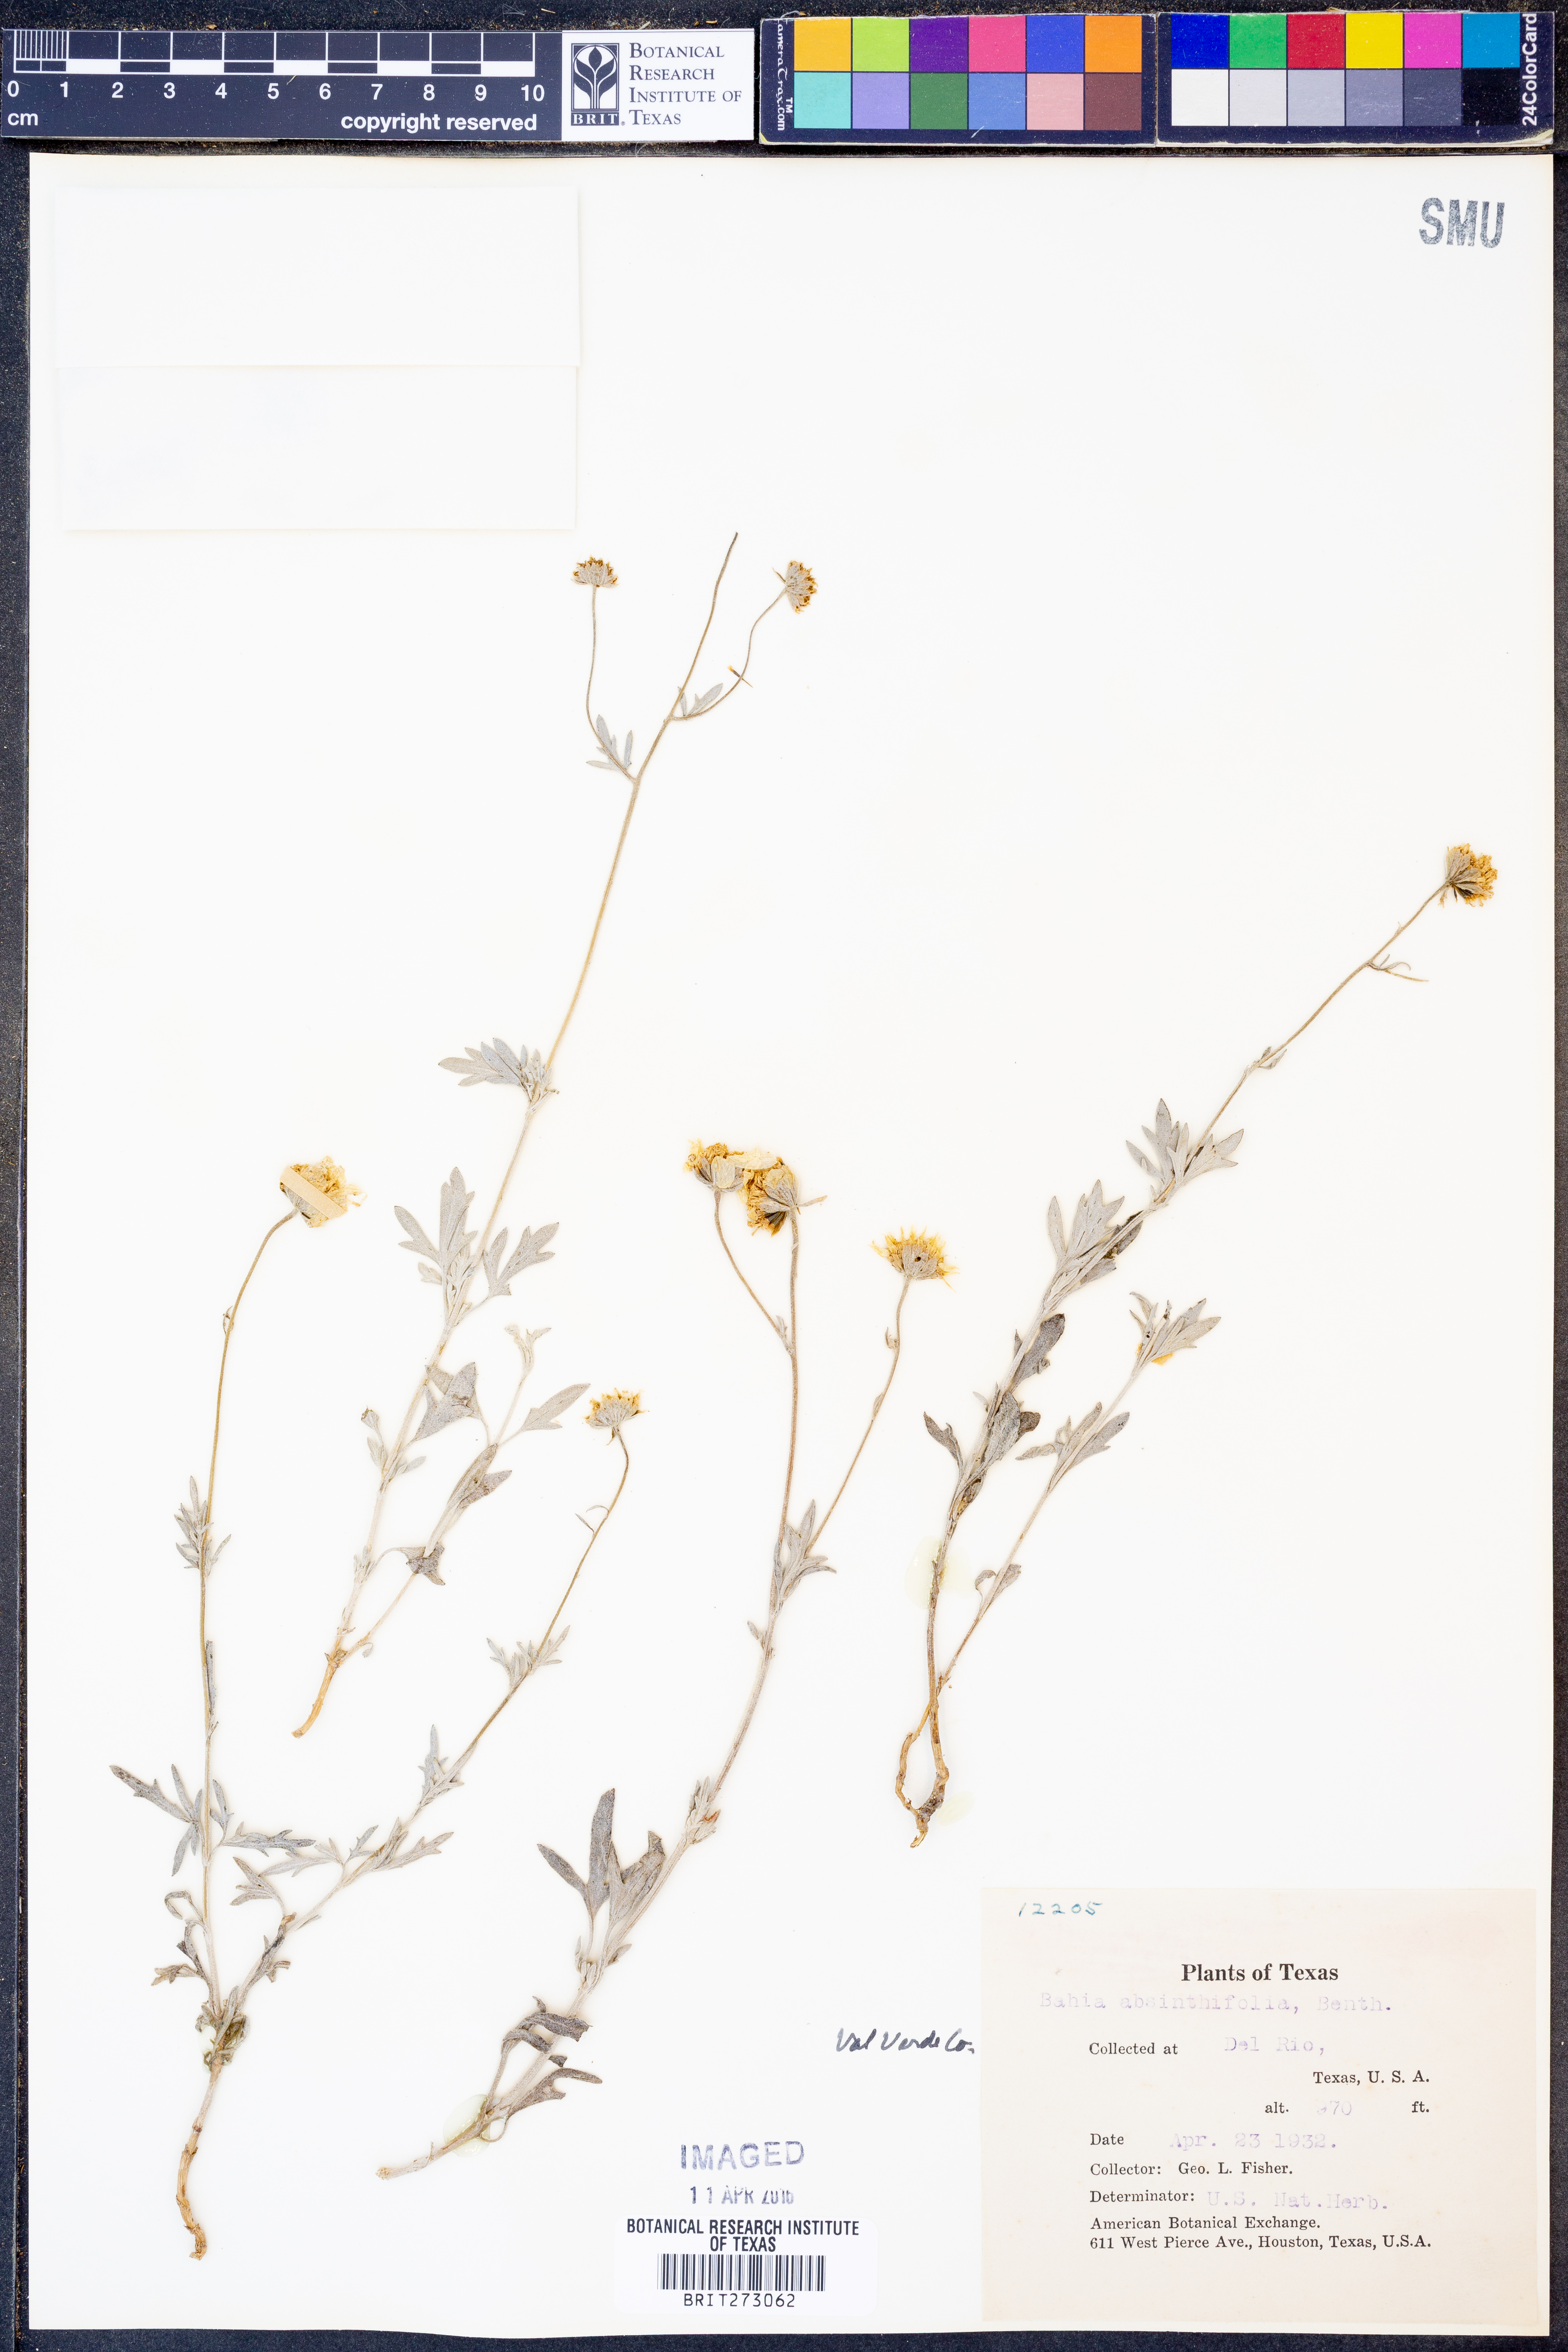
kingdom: Plantae
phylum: Tracheophyta
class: Magnoliopsida
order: Asterales
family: Asteraceae
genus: Picradeniopsis
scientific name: Picradeniopsis absinthifolia
